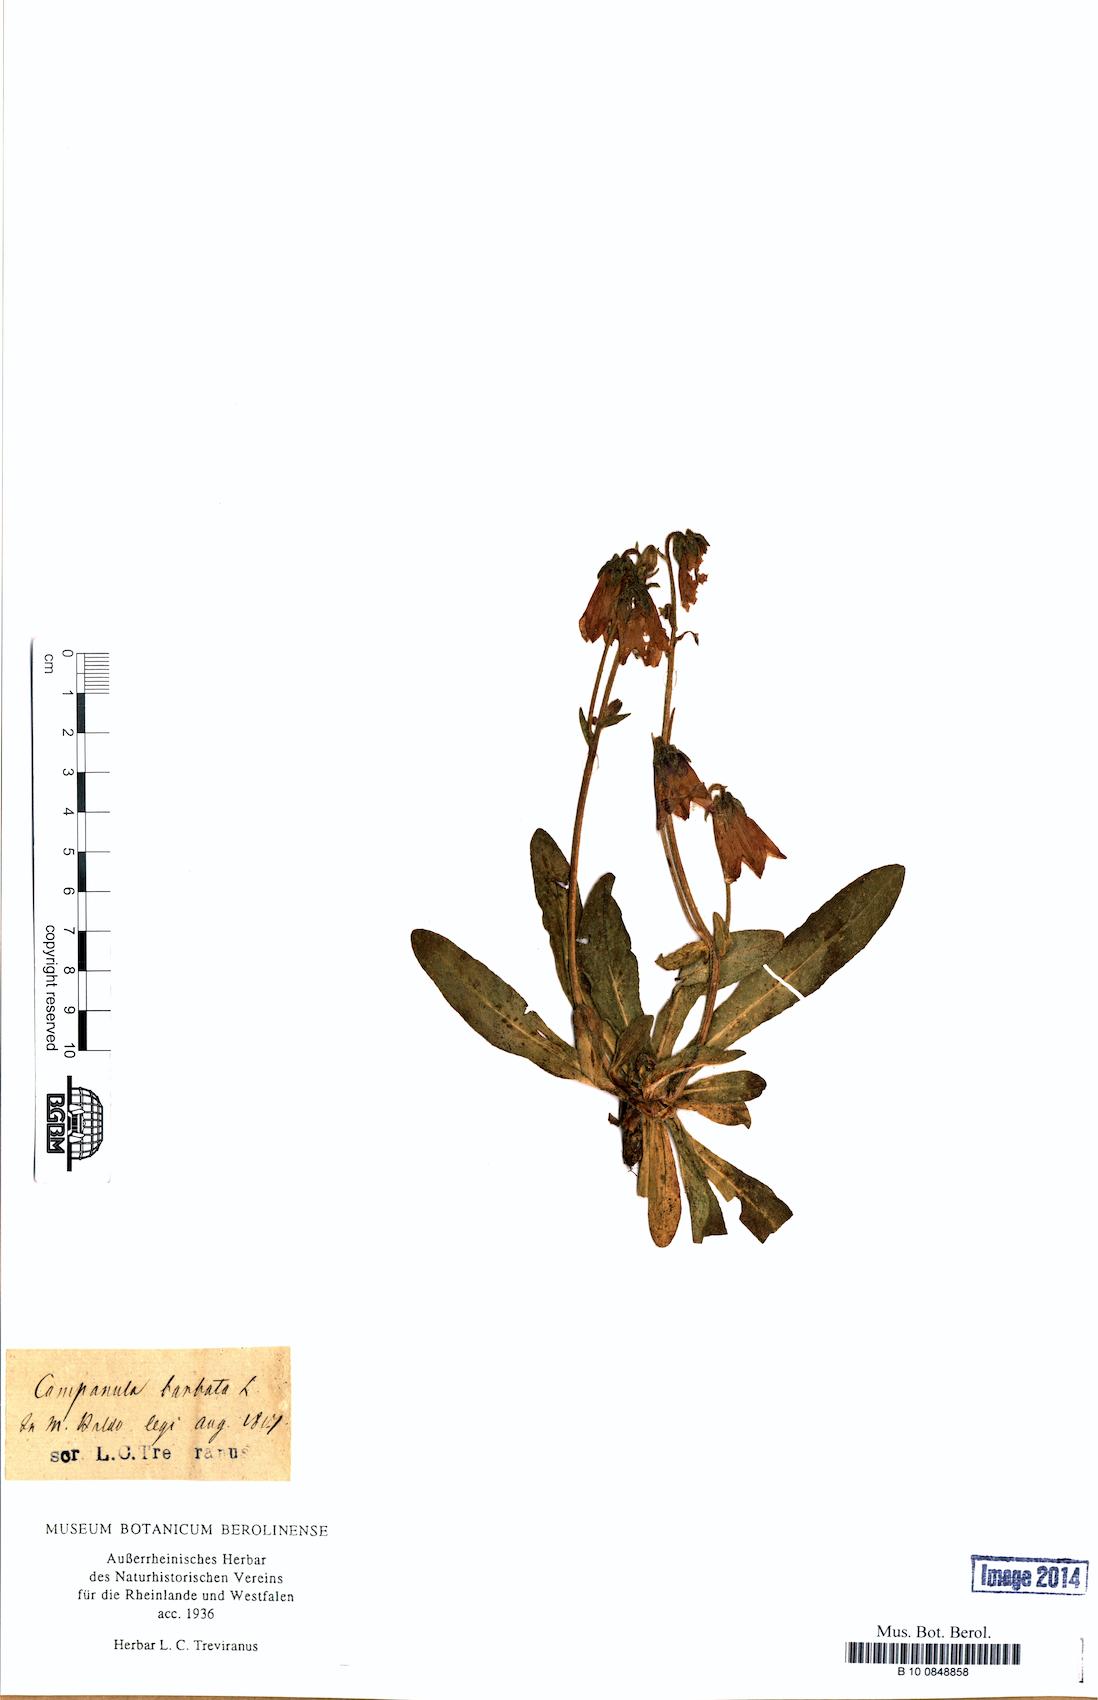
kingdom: Plantae
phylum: Tracheophyta
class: Magnoliopsida
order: Asterales
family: Campanulaceae
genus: Campanula
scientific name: Campanula barbata
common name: Bearded bellflower
